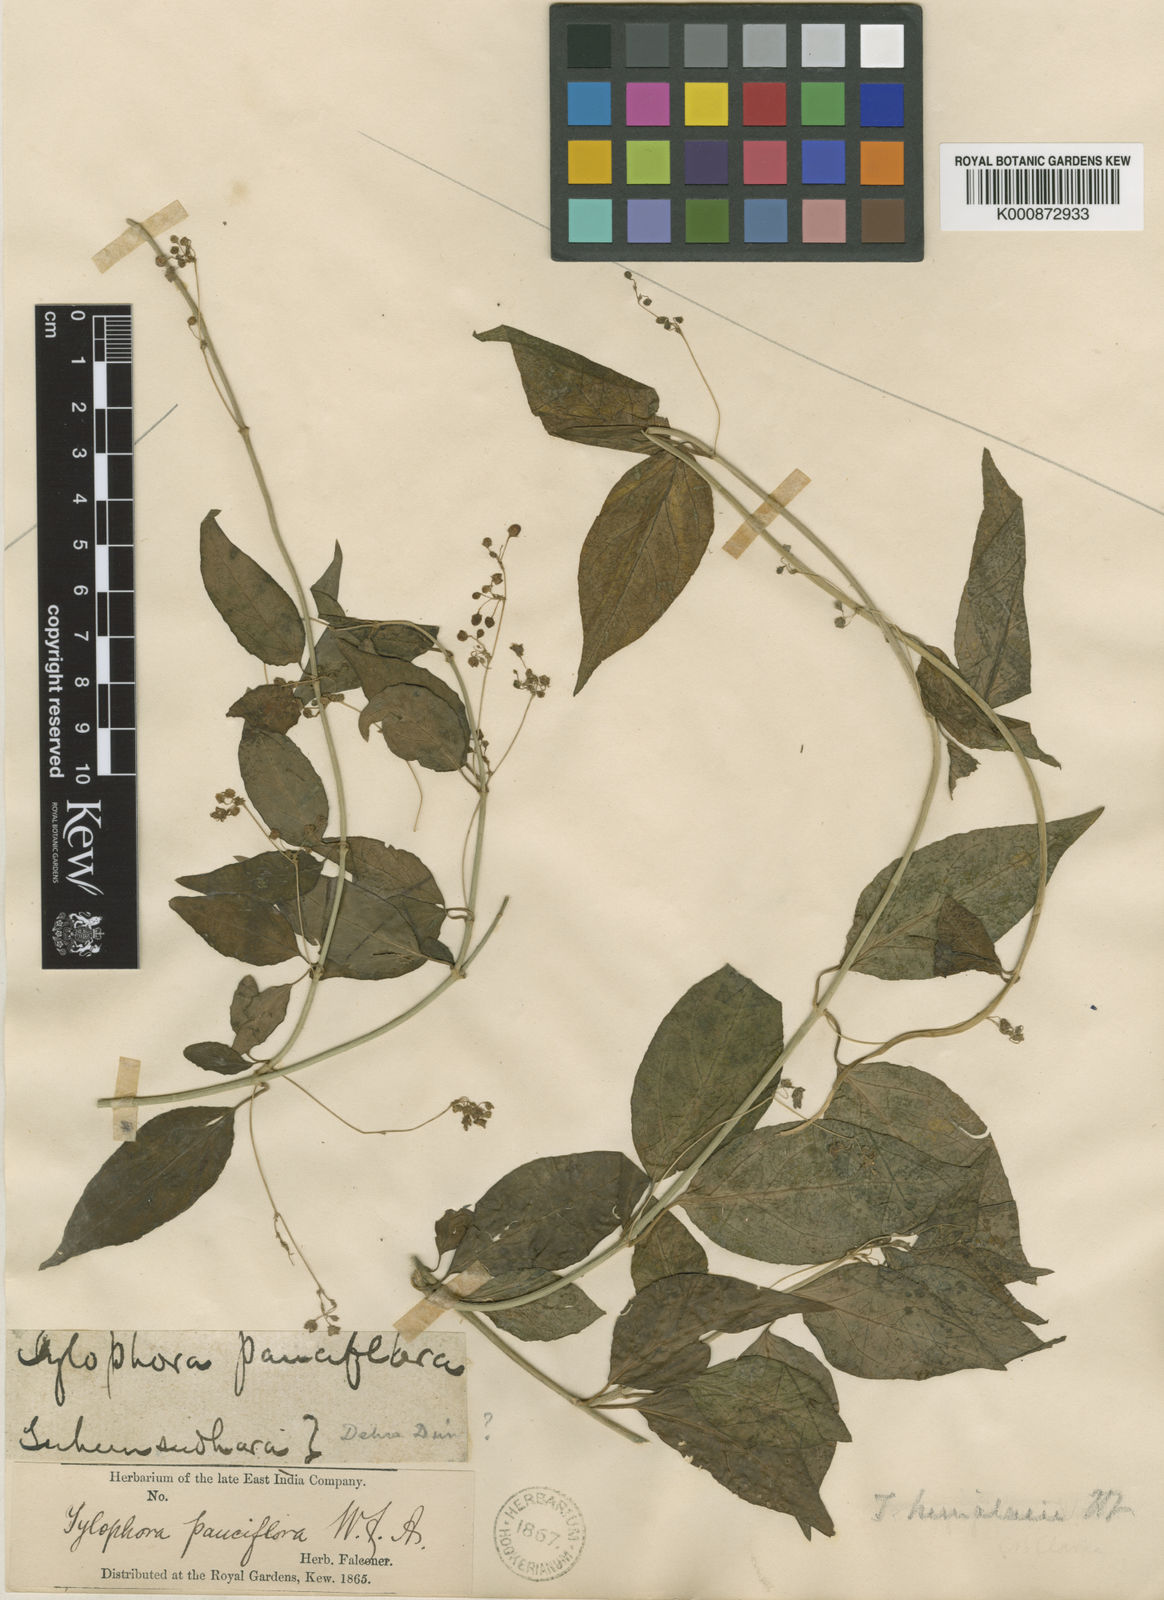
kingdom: Plantae
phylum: Tracheophyta
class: Magnoliopsida
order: Gentianales
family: Apocynaceae
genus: Vincetoxicum
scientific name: Vincetoxicum himalaicum
